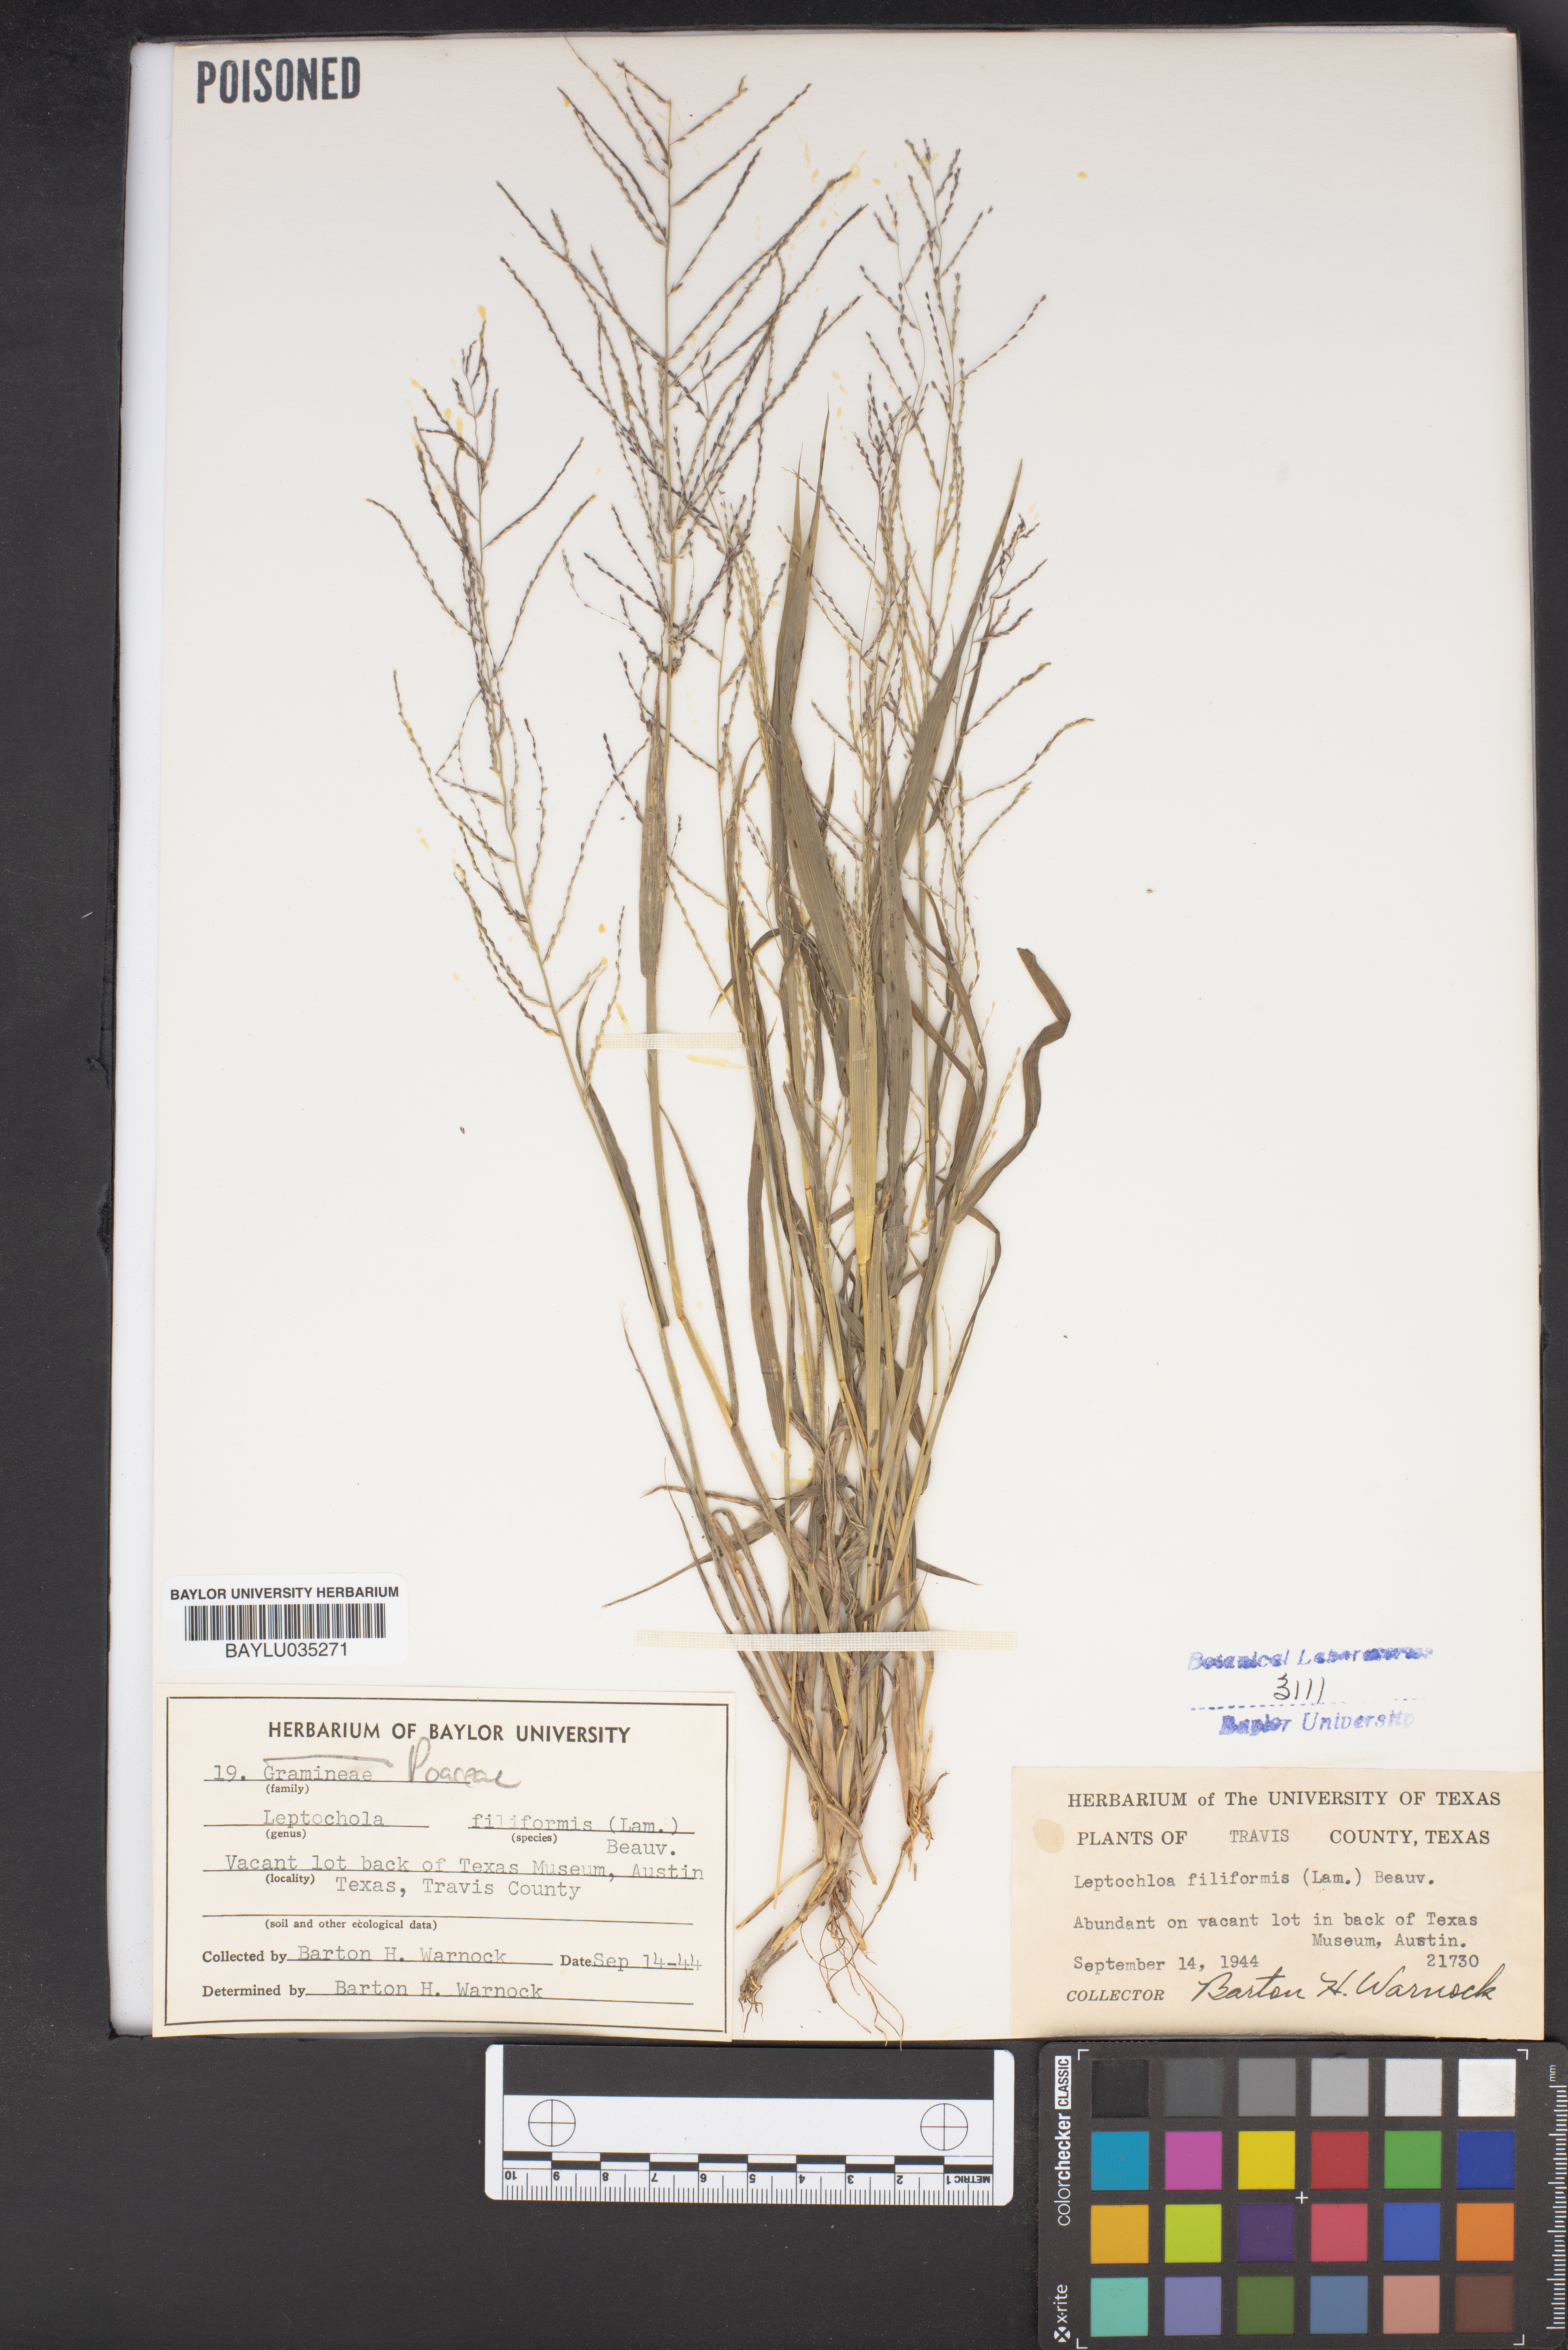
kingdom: Plantae
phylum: Tracheophyta
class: Liliopsida
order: Poales
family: Poaceae
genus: Leptochloa
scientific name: Leptochloa mucronata
